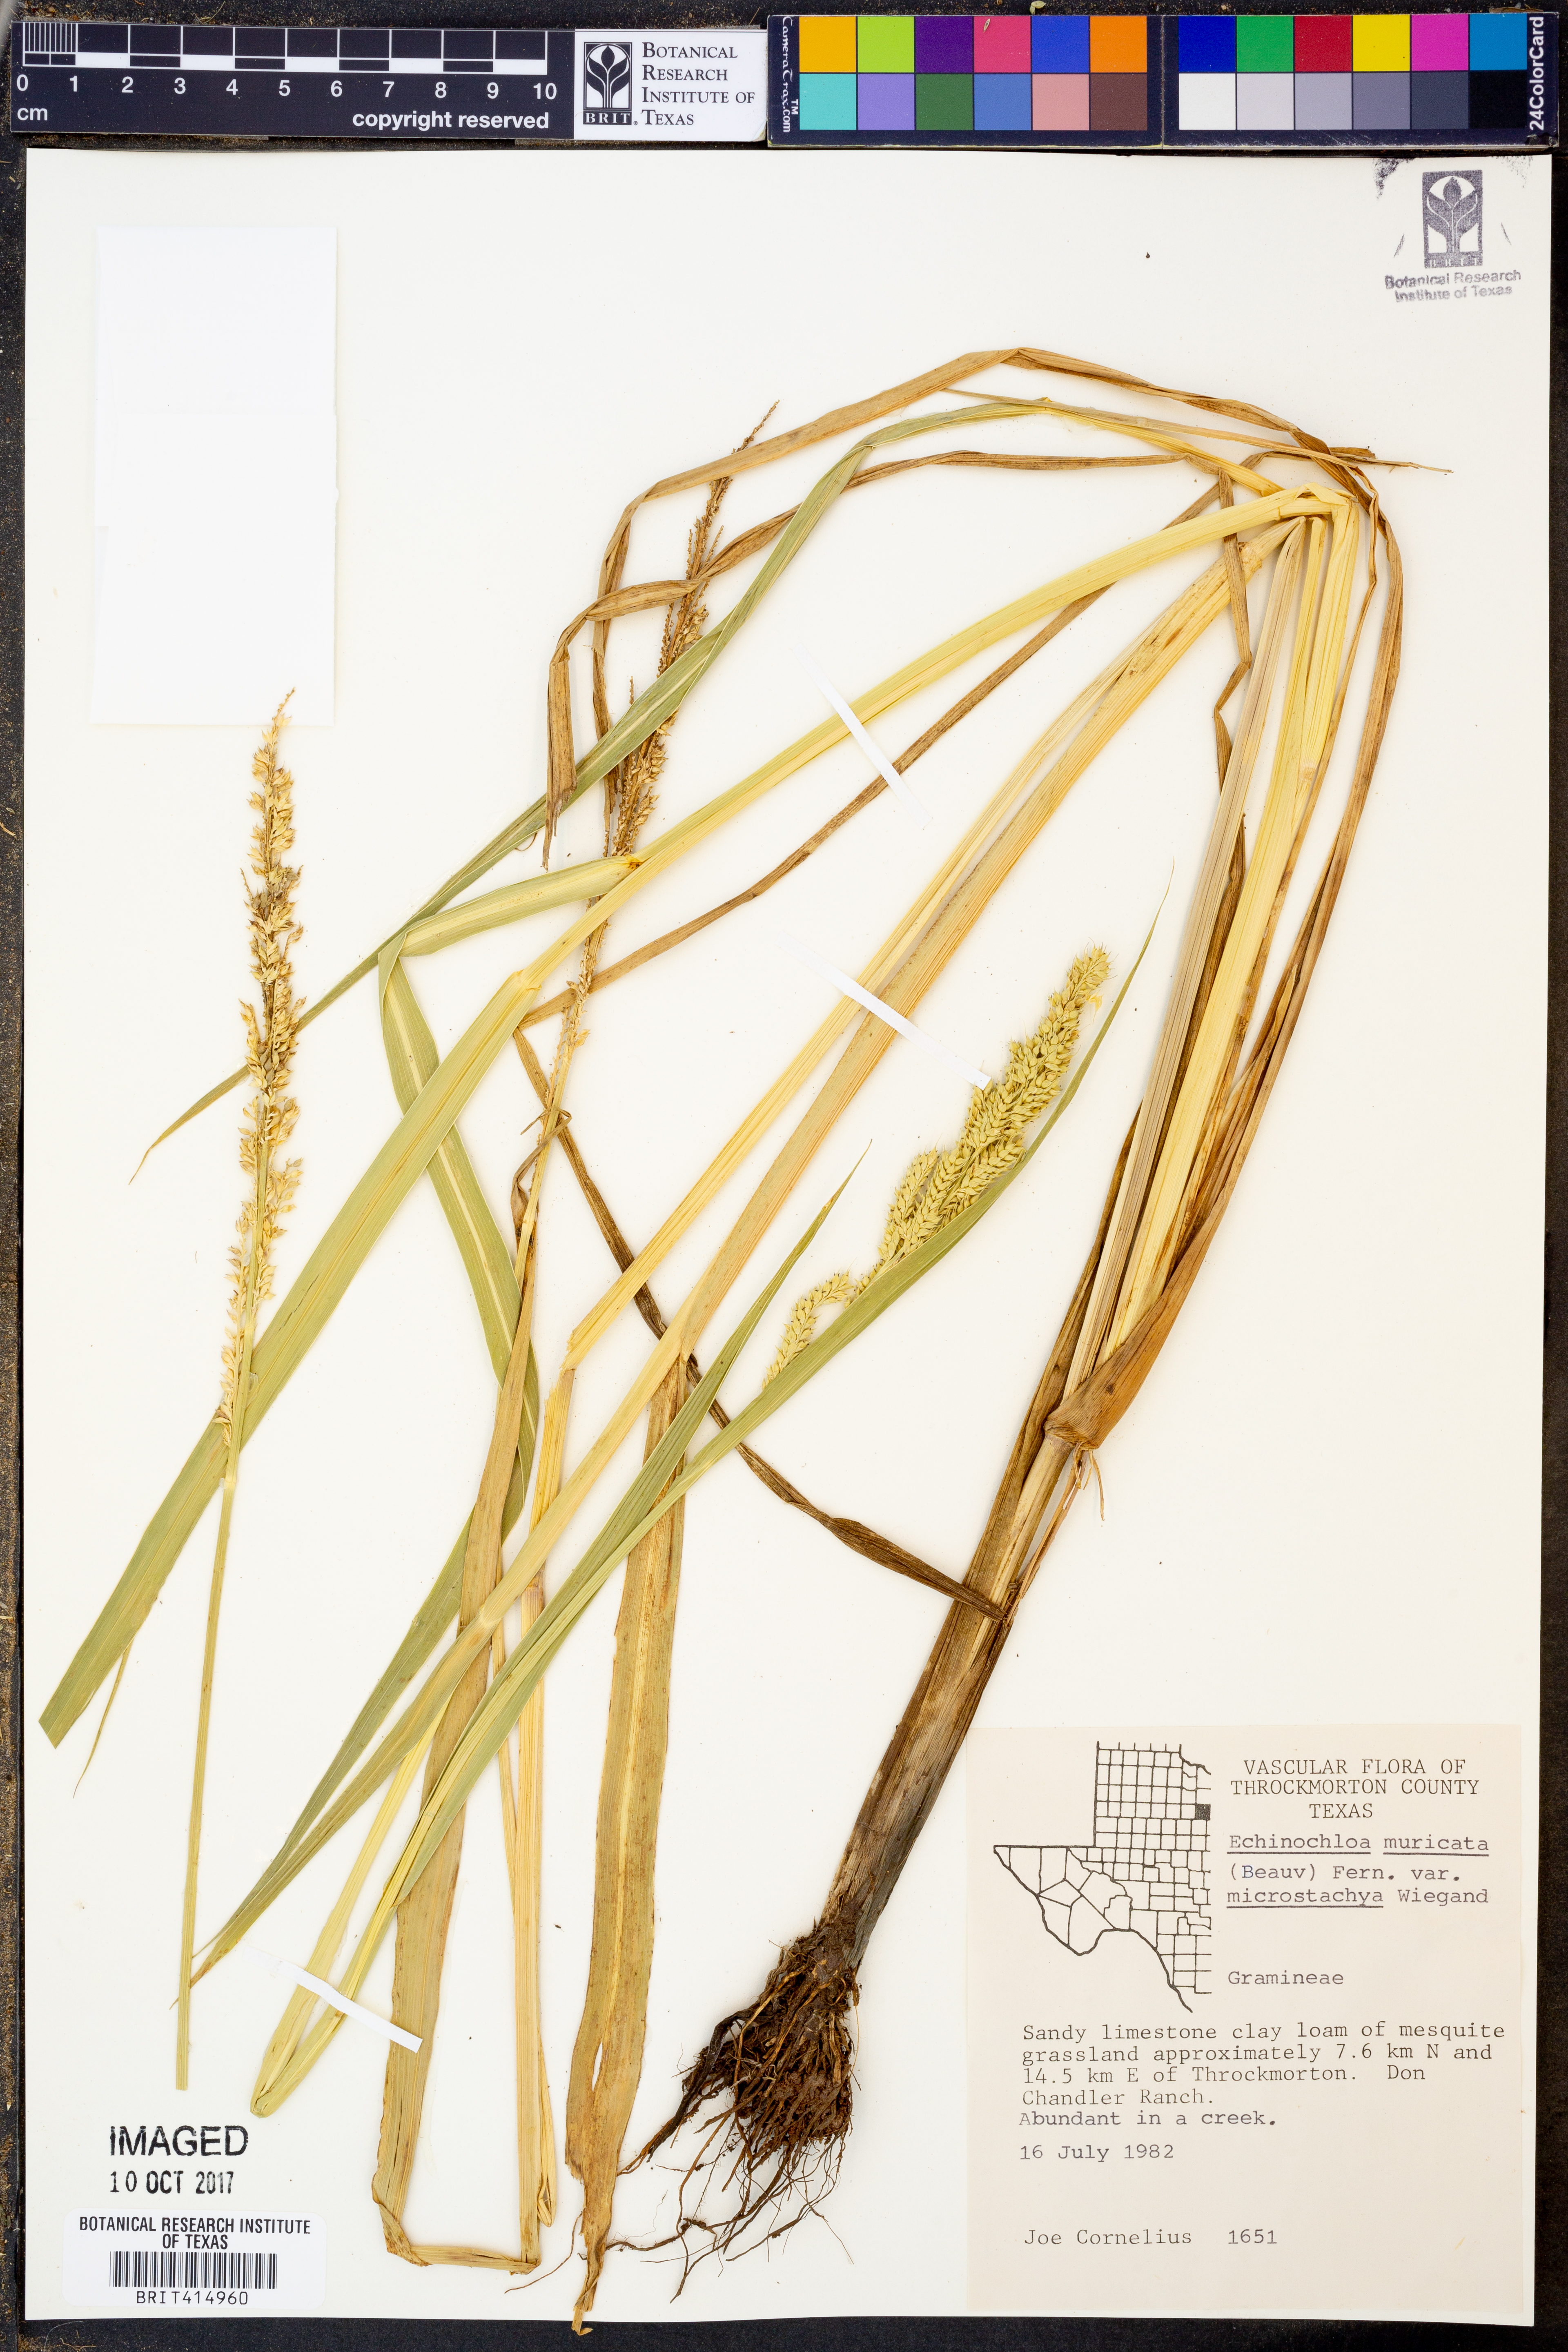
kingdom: Plantae
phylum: Tracheophyta
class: Liliopsida
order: Poales
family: Poaceae
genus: Echinochloa
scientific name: Echinochloa muricata
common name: American barnyard grass
